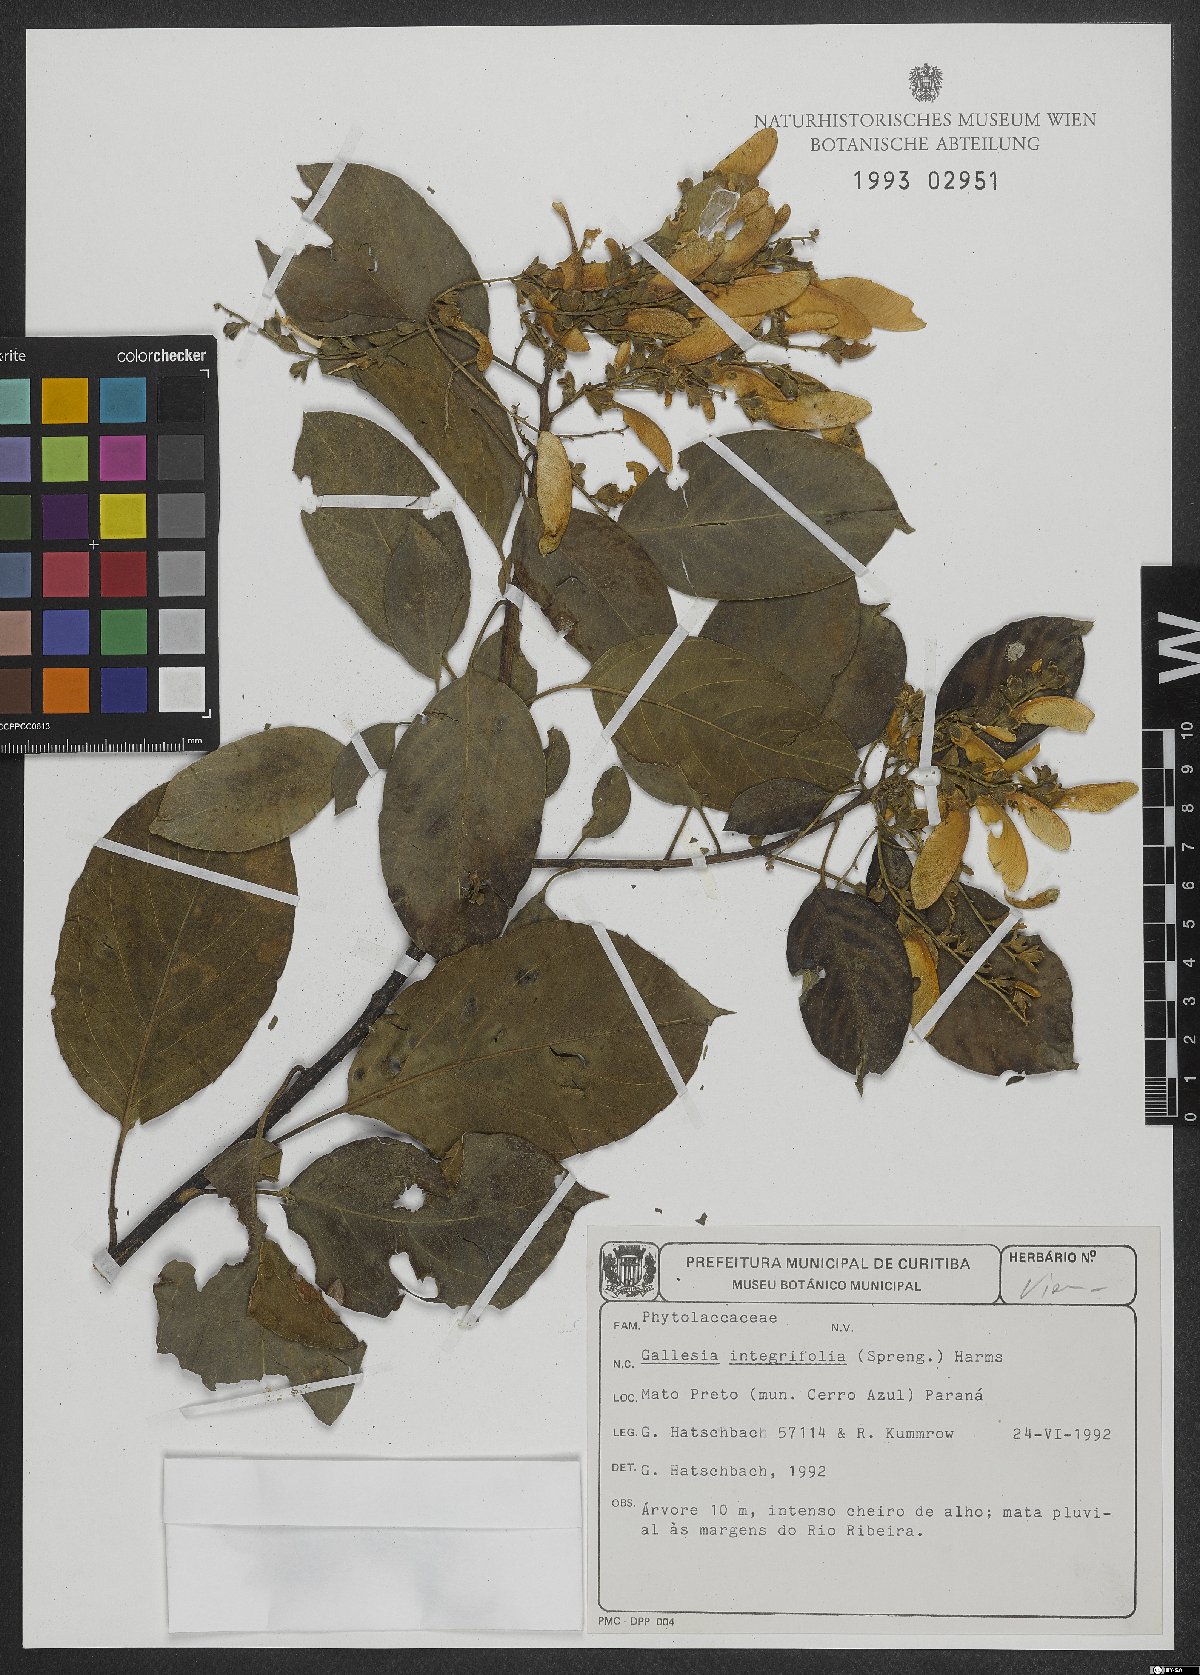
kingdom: Plantae
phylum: Tracheophyta
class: Magnoliopsida
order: Caryophyllales
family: Phytolaccaceae
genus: Gallesia
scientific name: Gallesia integrifolia
